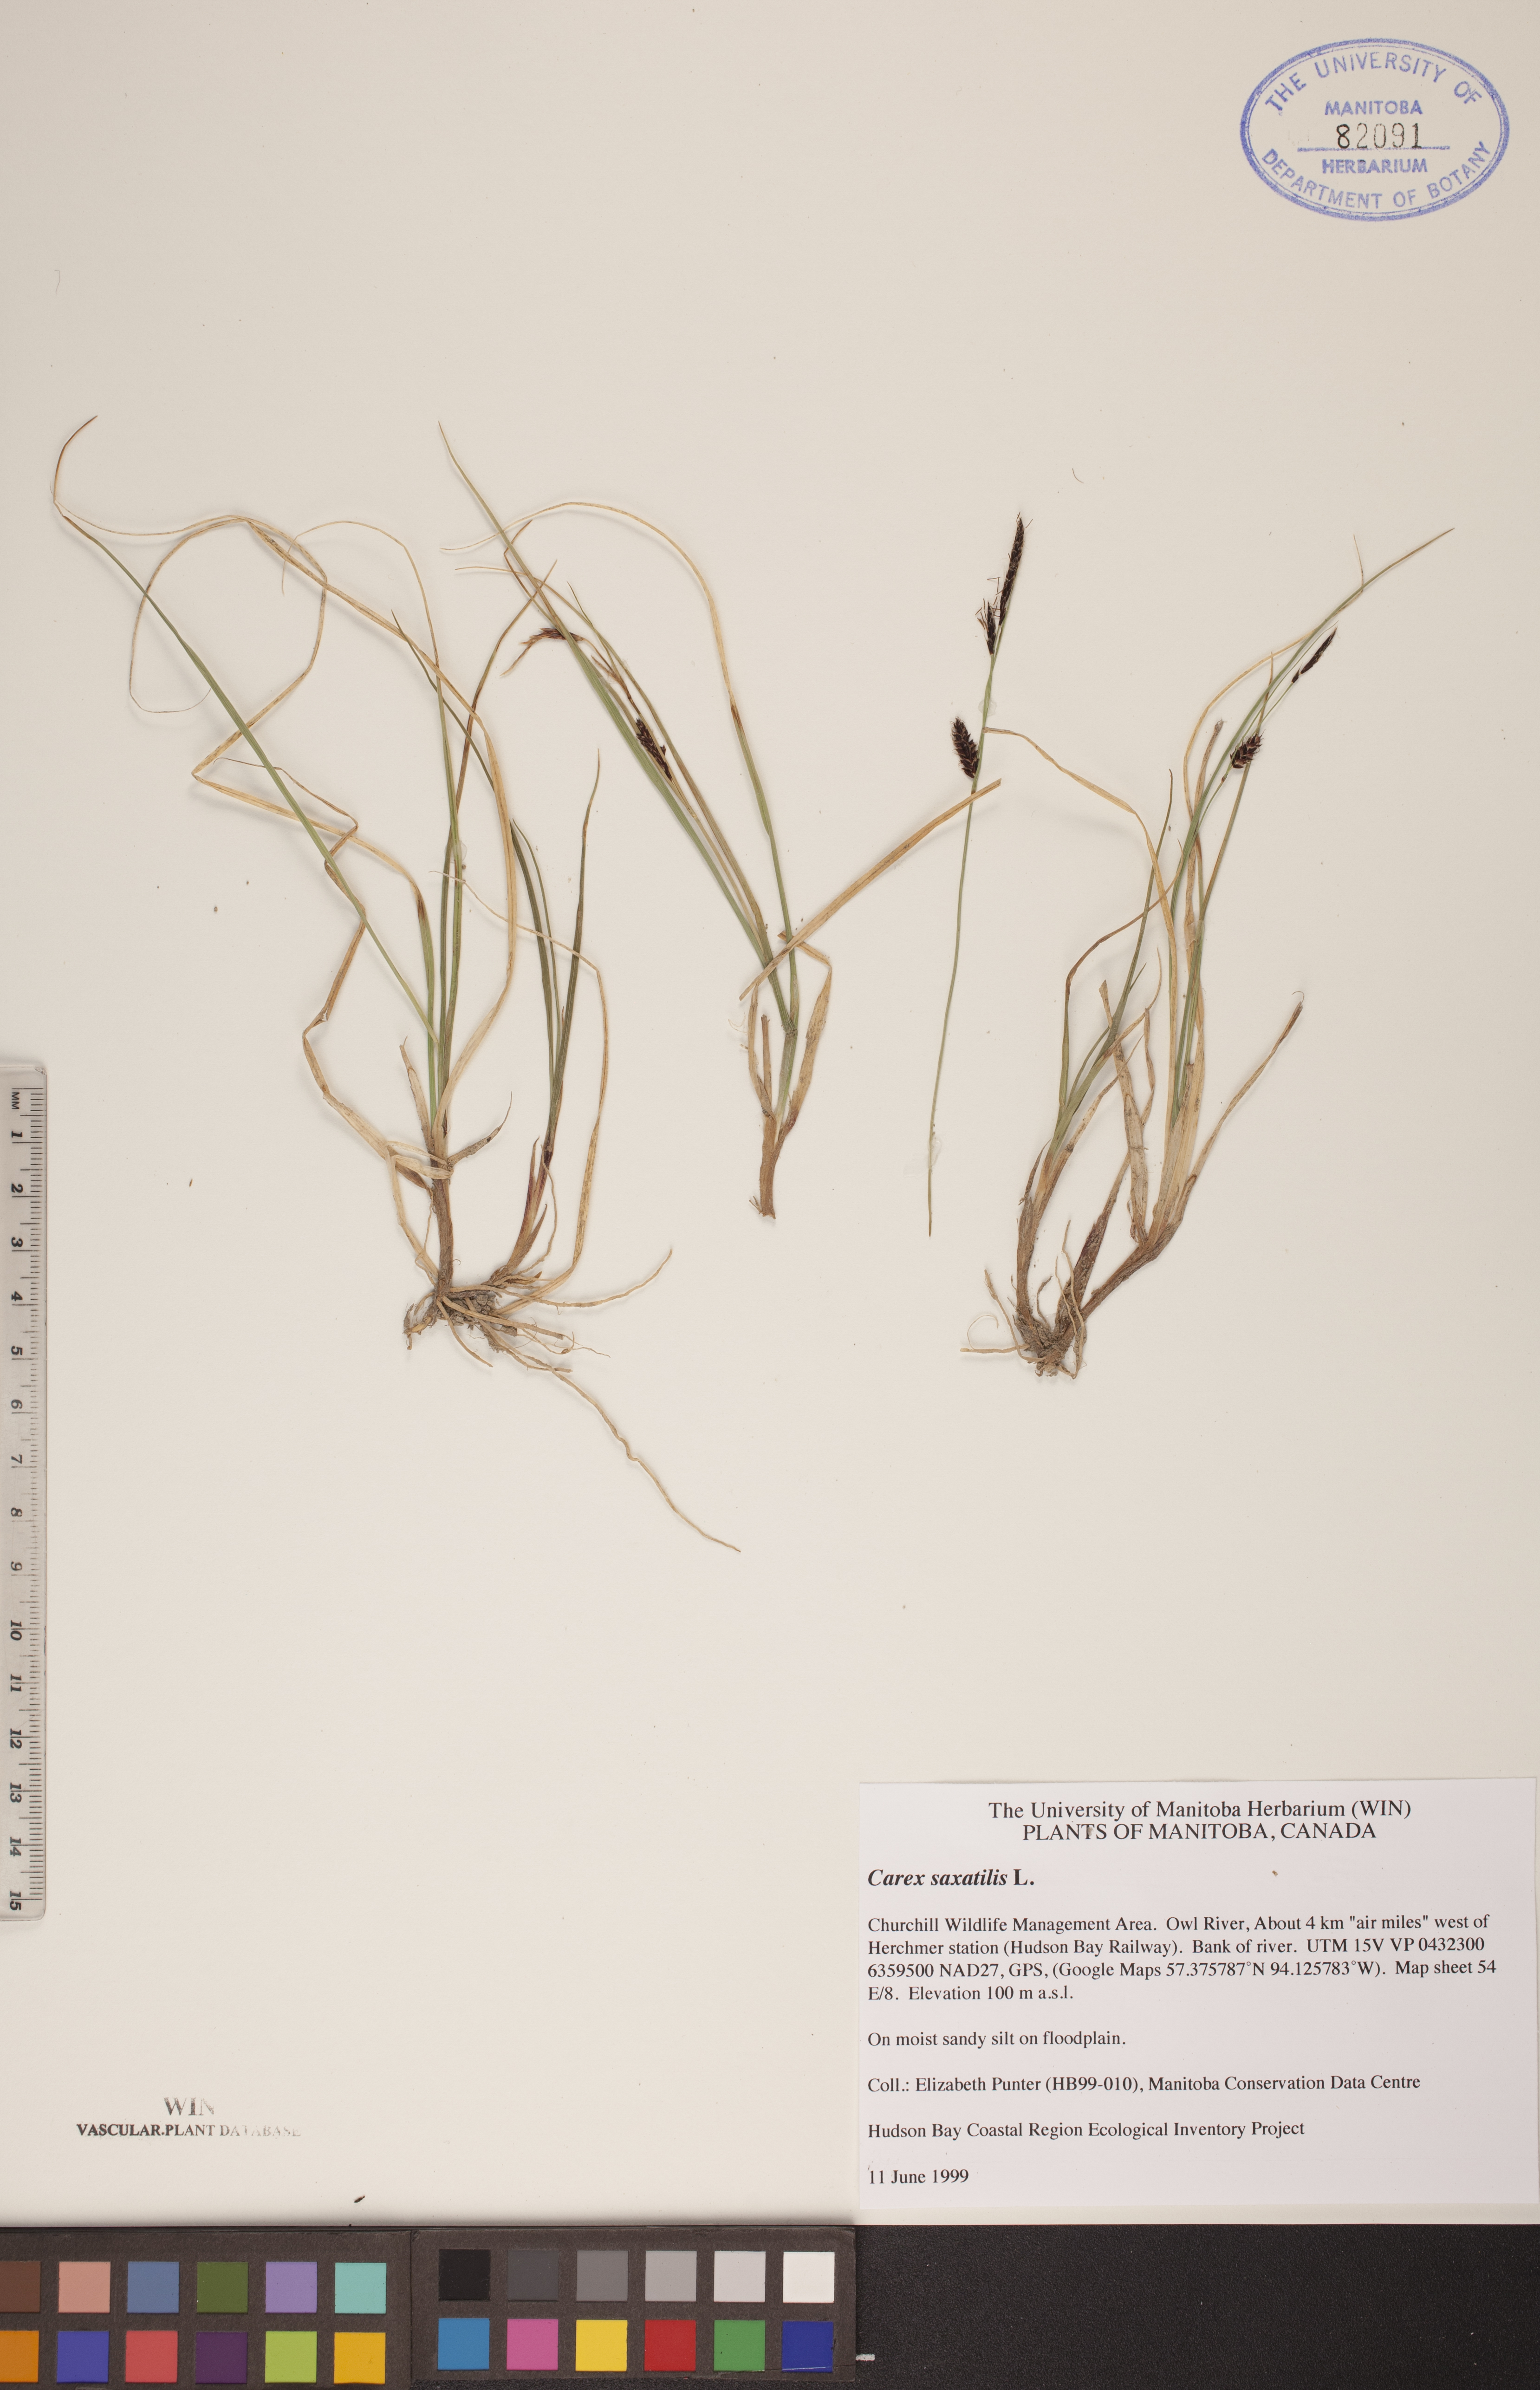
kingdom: Plantae
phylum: Tracheophyta
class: Liliopsida
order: Poales
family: Cyperaceae
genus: Carex
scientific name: Carex saxatilis
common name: Russet sedge
